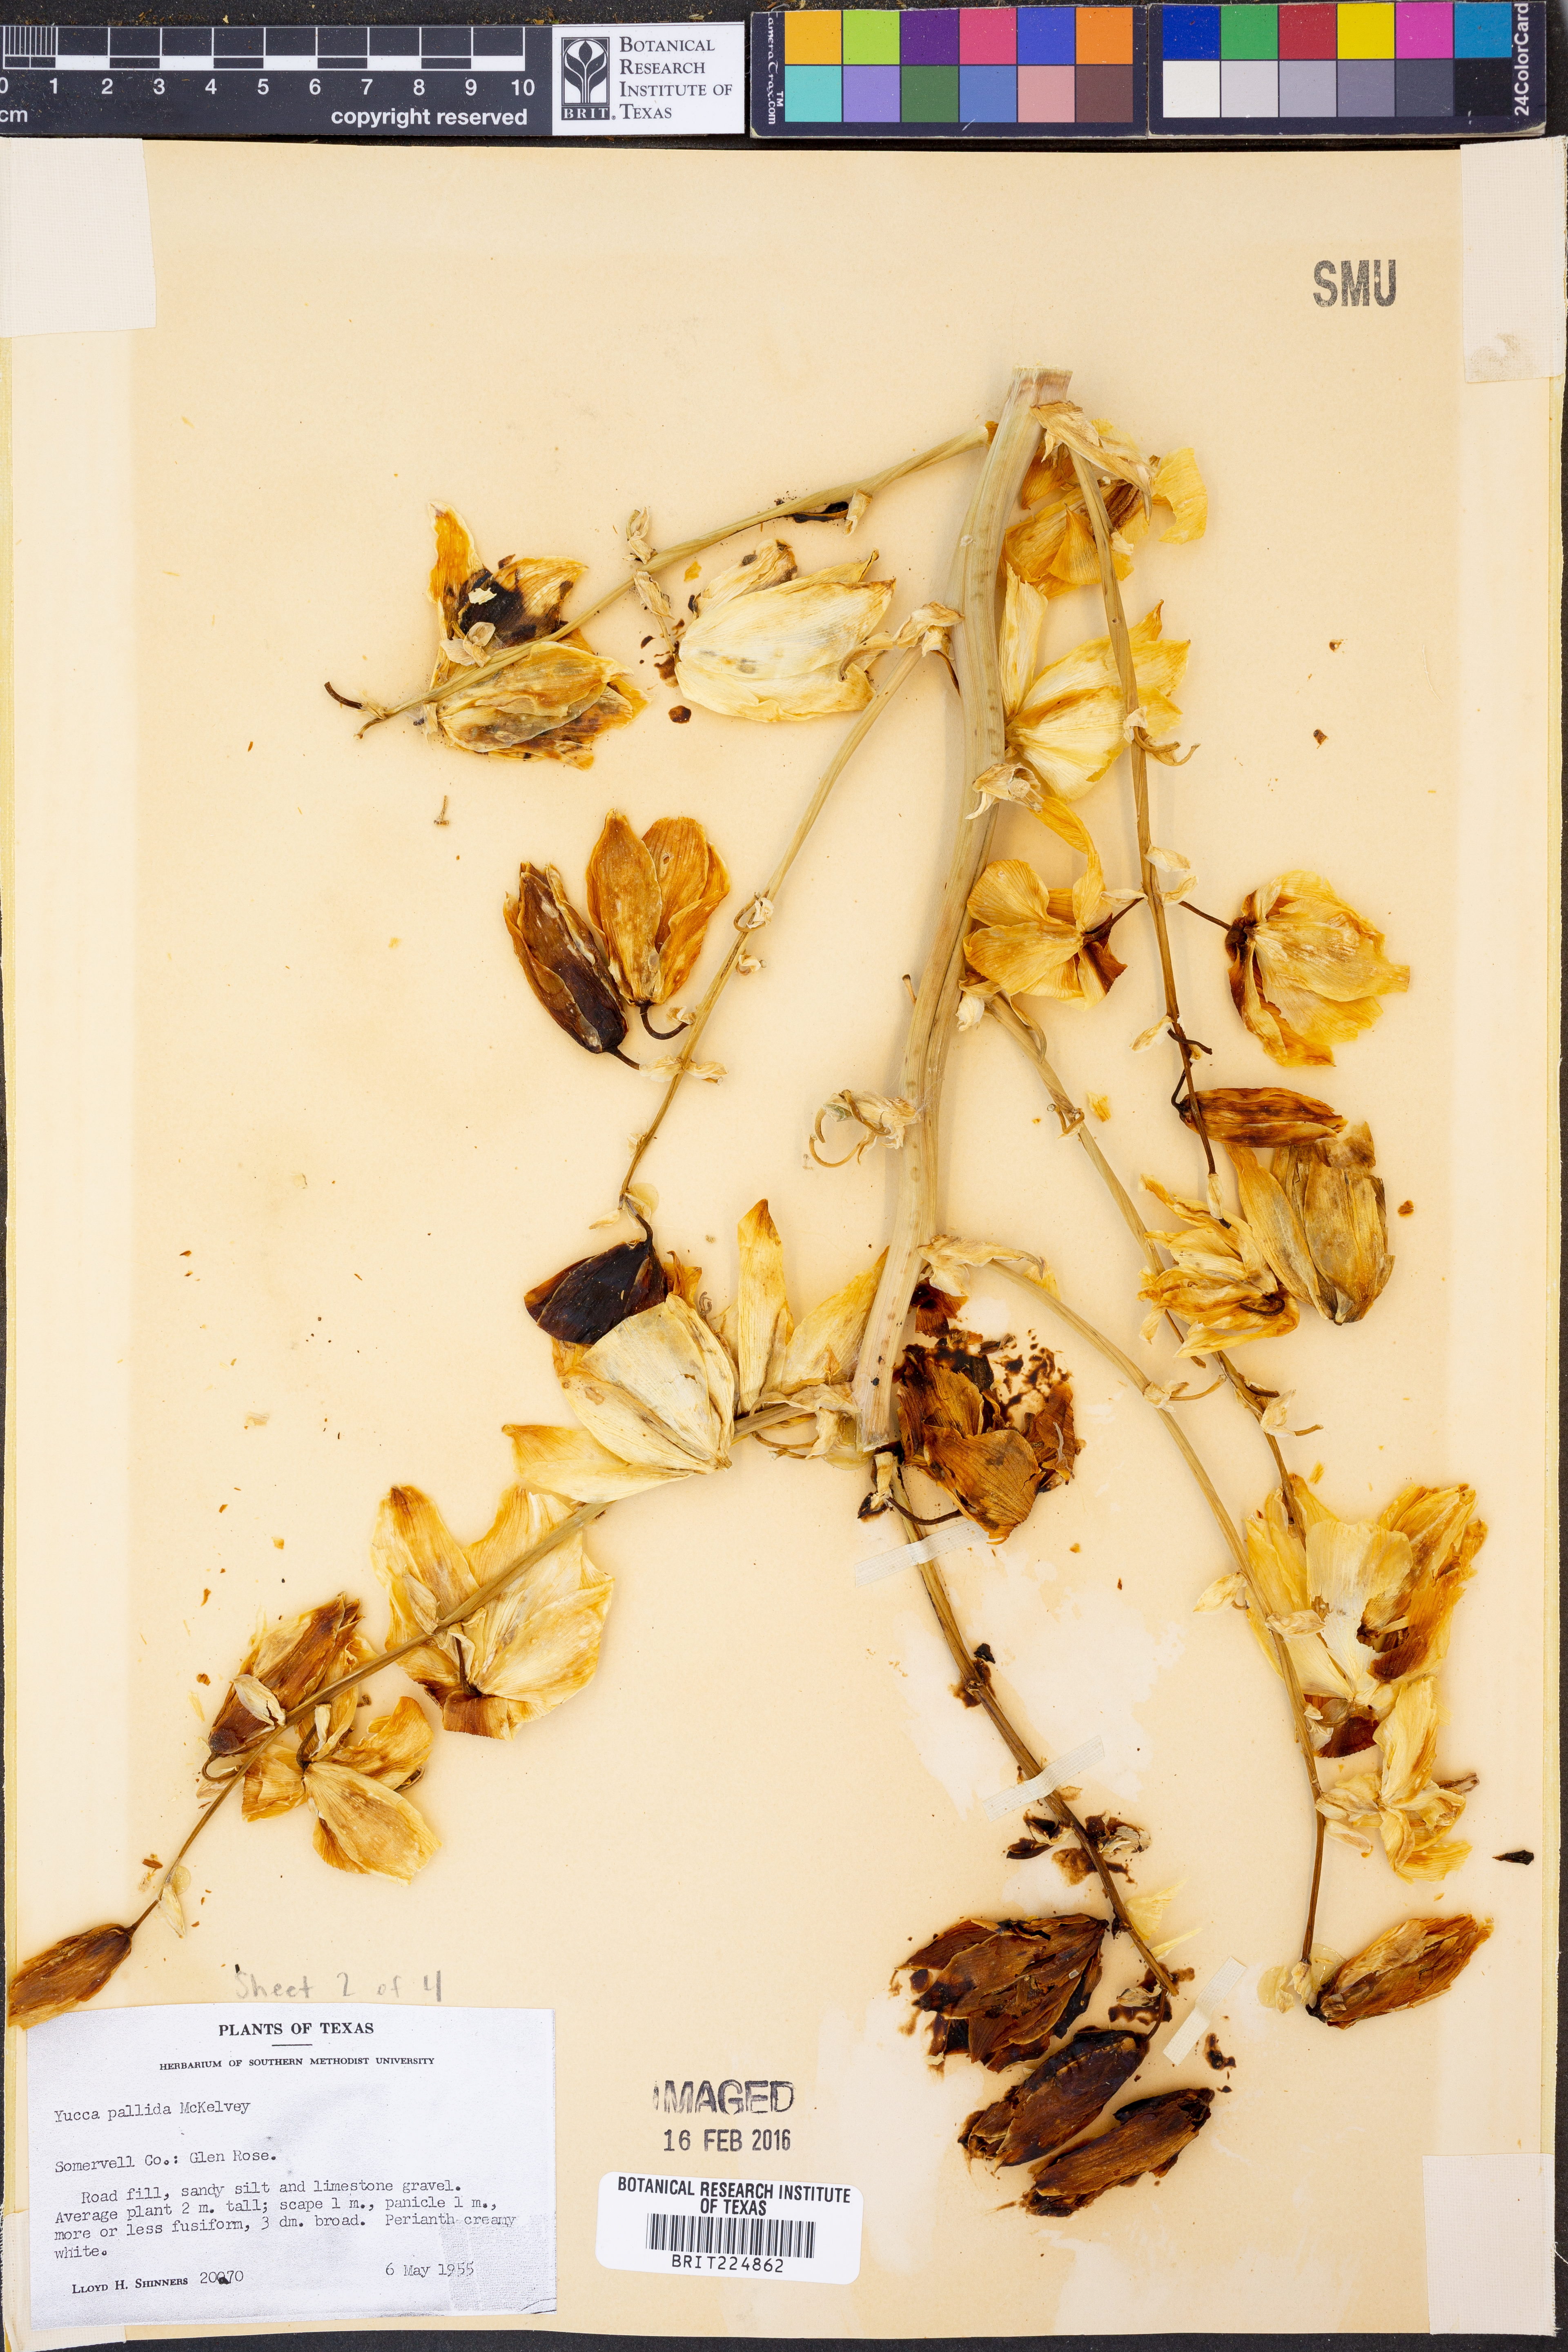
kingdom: Plantae
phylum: Tracheophyta
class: Liliopsida
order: Asparagales
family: Asparagaceae
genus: Yucca
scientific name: Yucca pallida
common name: Pale leaf yucca
